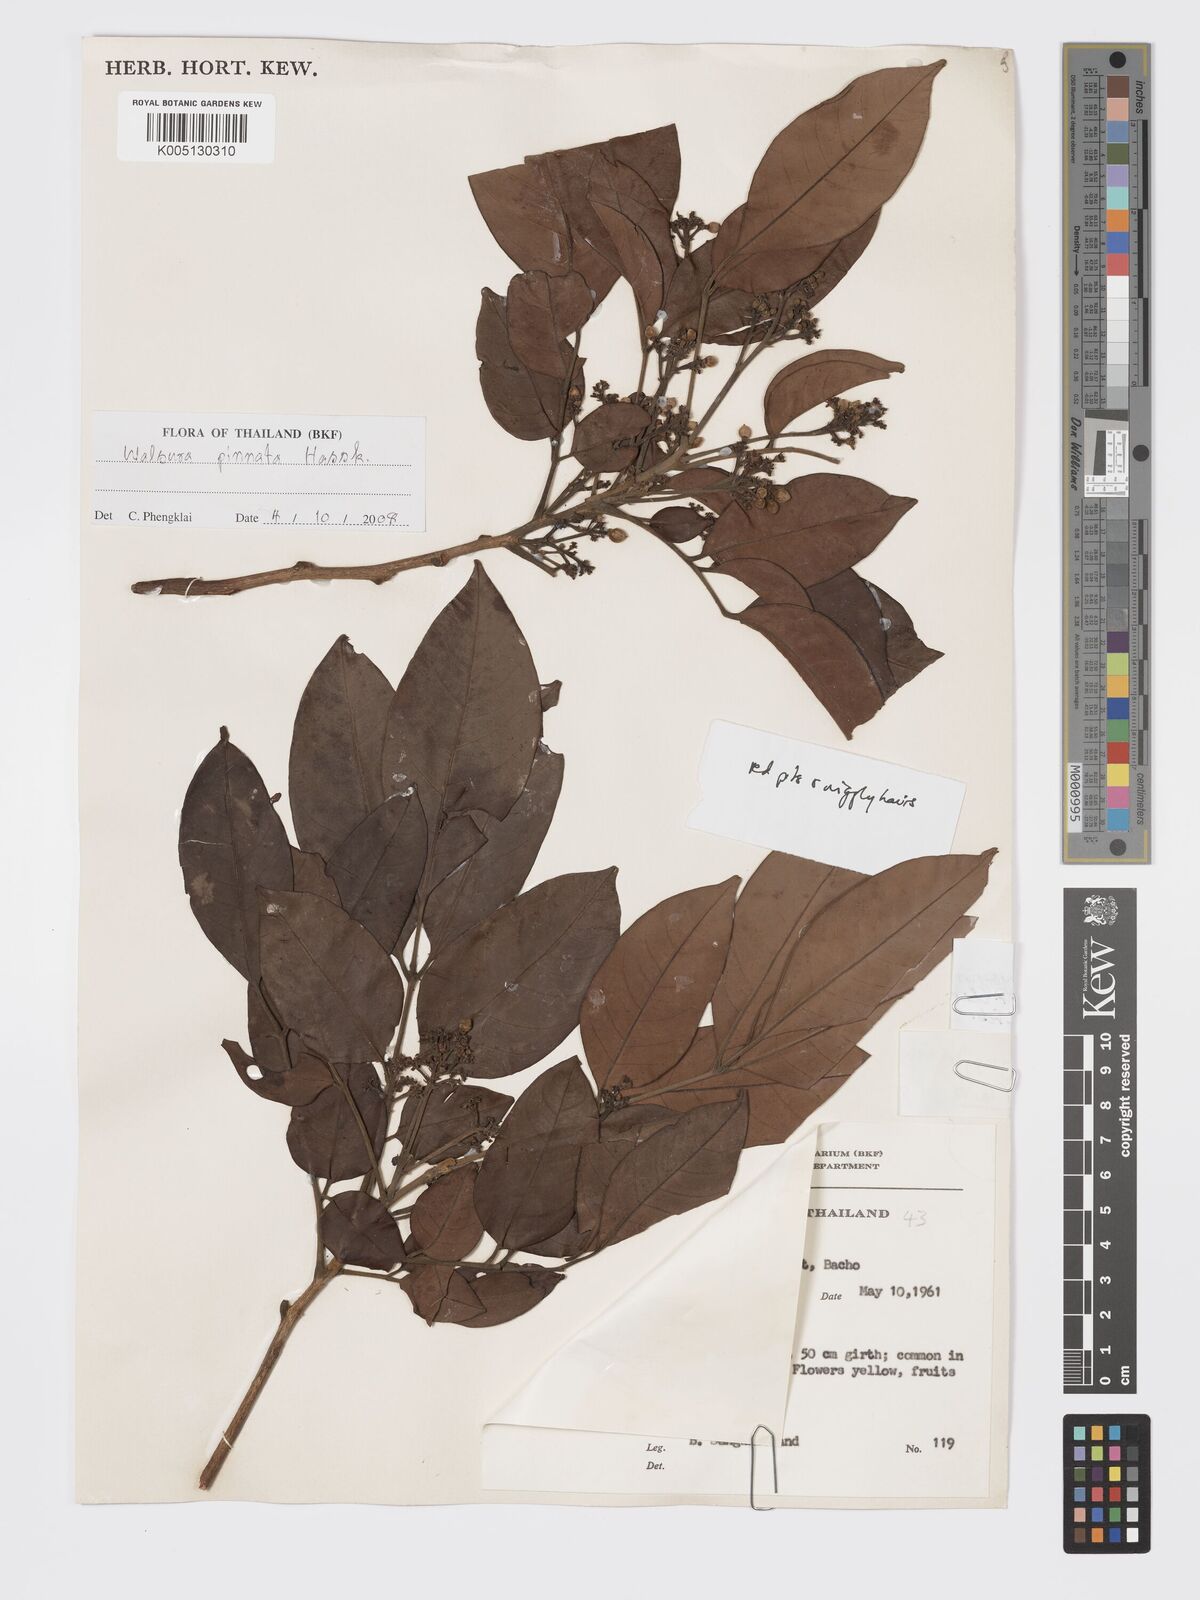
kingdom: Plantae
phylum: Tracheophyta
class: Magnoliopsida
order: Sapindales
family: Meliaceae
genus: Pseudoclausena
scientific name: Pseudoclausena chrysogyne
